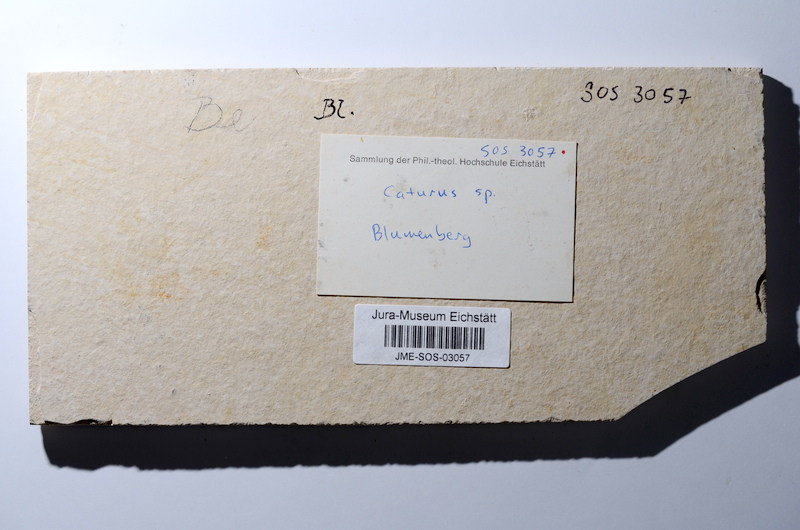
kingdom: Animalia
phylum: Chordata
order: Amiiformes
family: Caturidae
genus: Caturus
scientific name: Caturus furcatus
